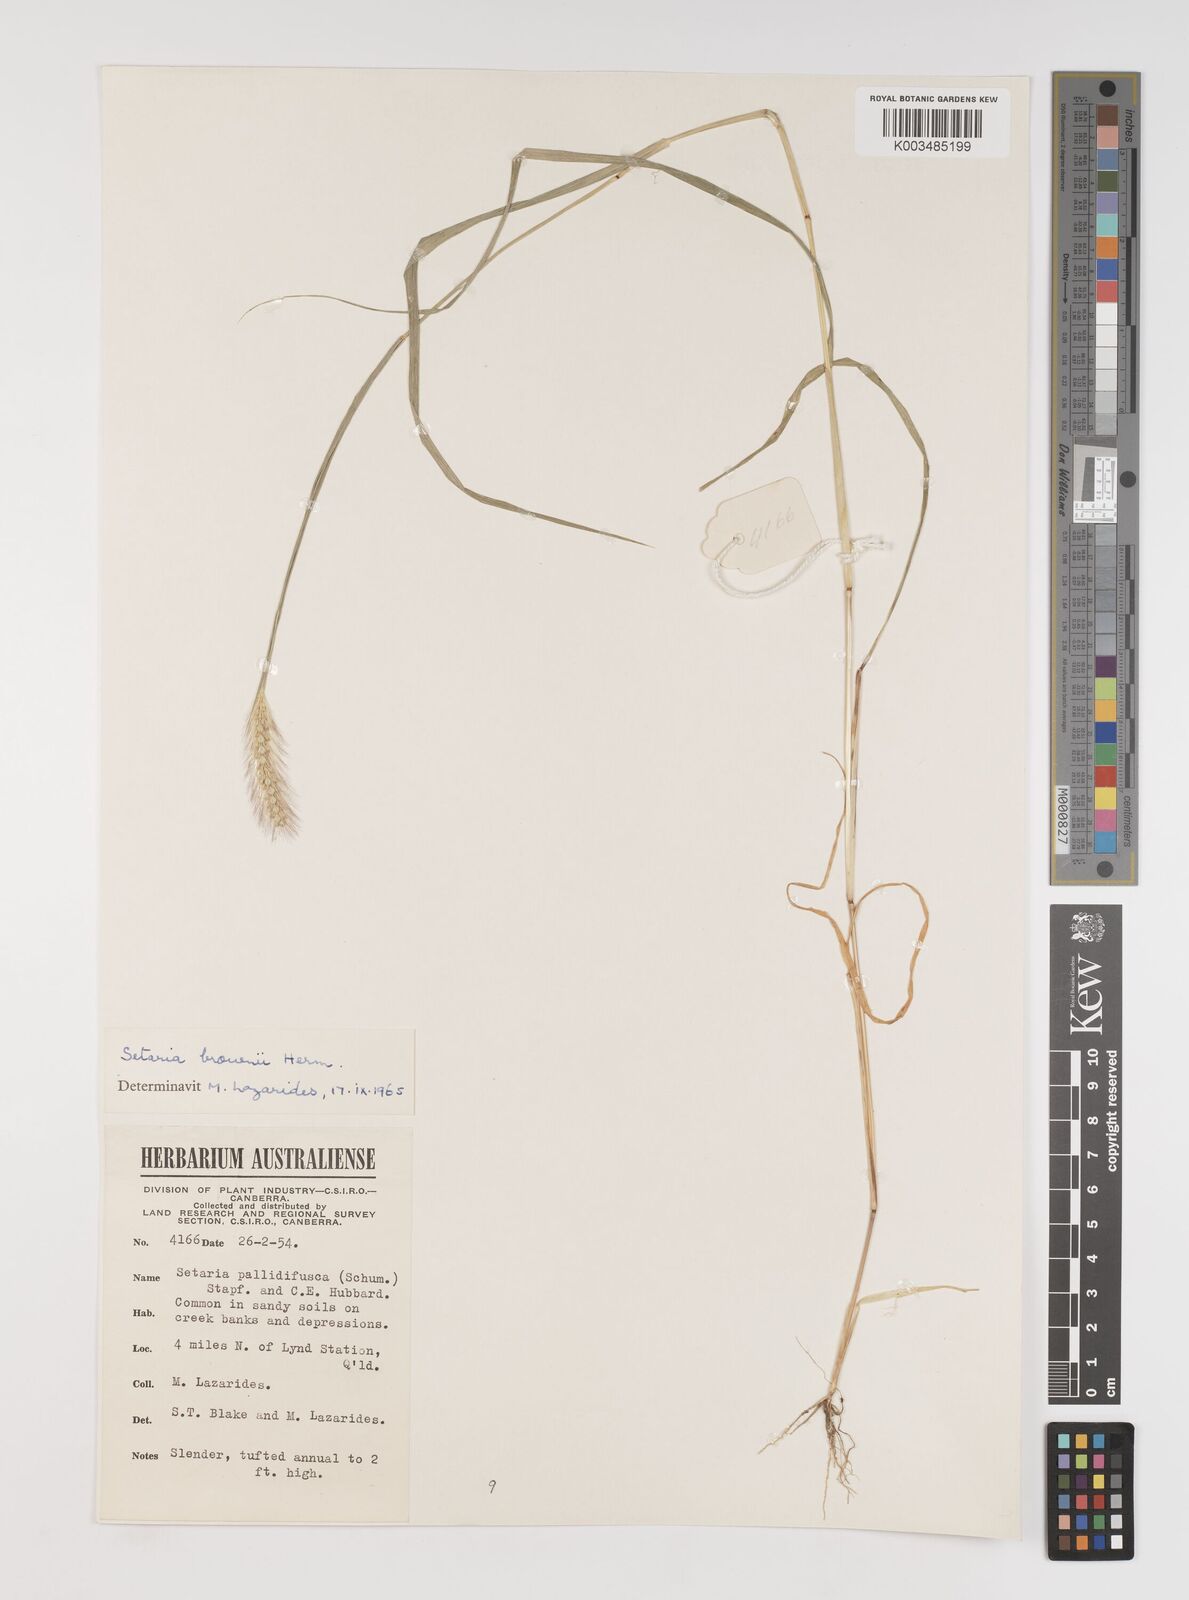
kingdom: Plantae
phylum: Tracheophyta
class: Liliopsida
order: Poales
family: Poaceae
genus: Setaria
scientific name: Setaria apiculata
